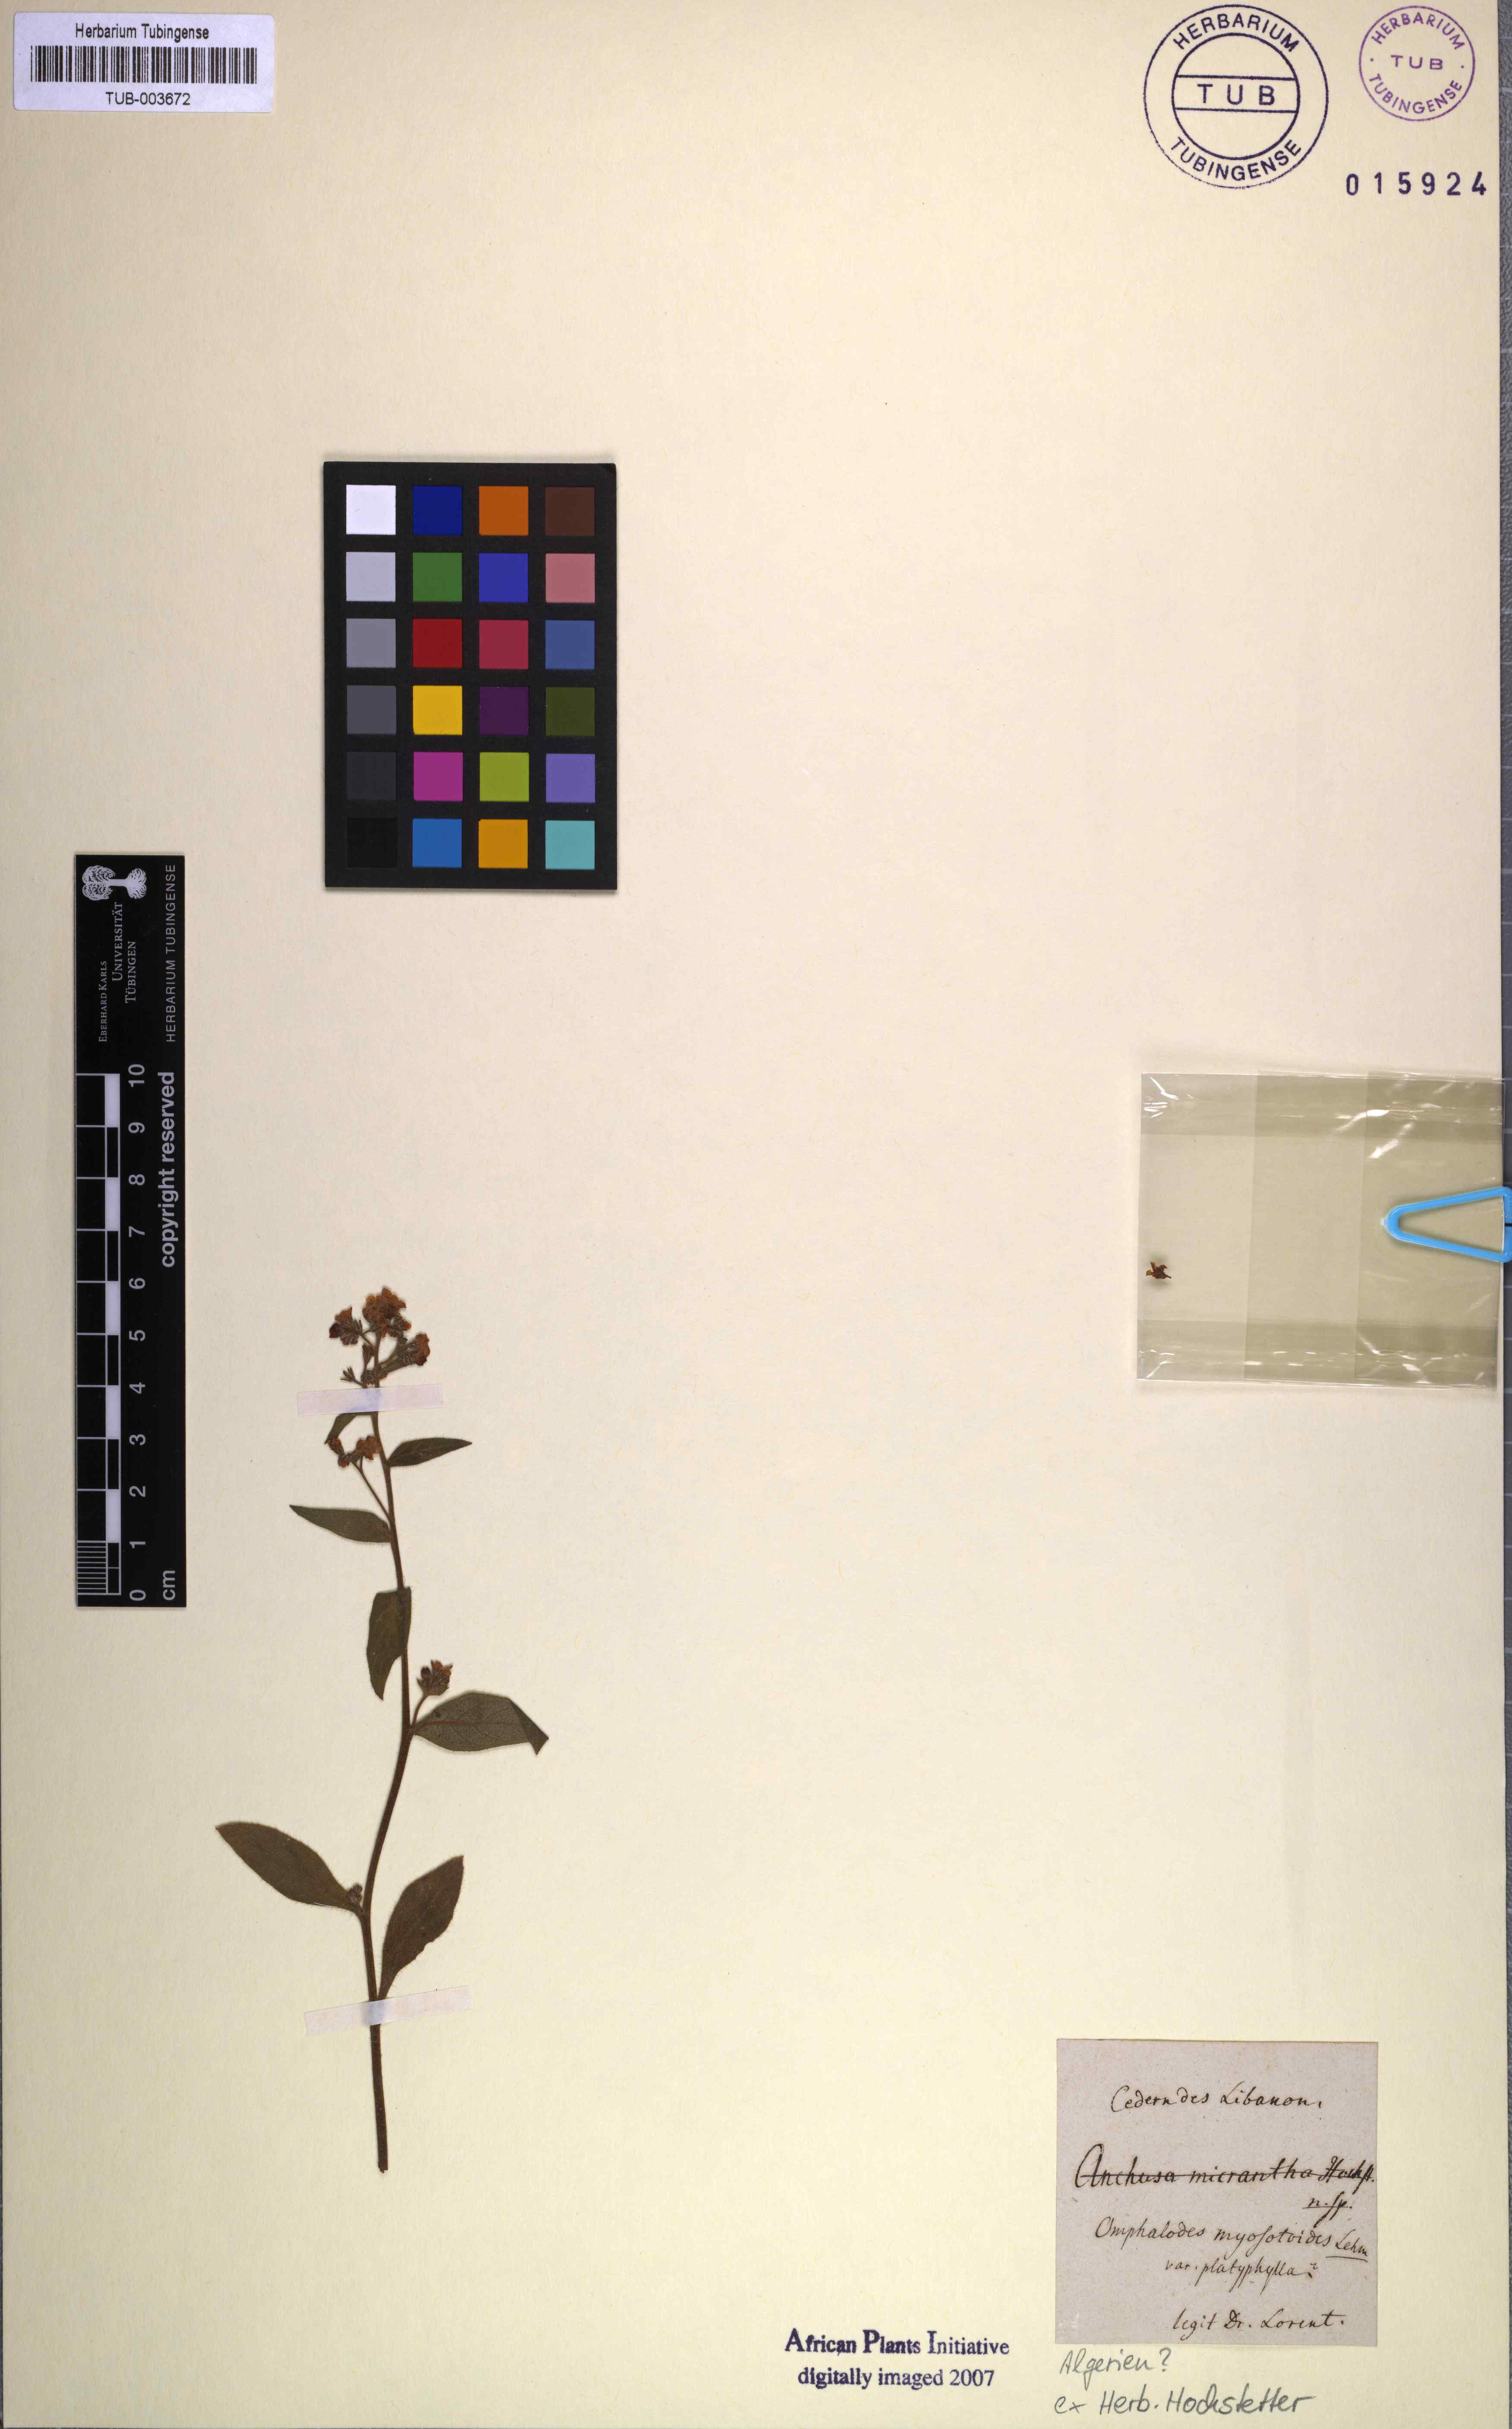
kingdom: Plantae
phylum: Tracheophyta
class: Magnoliopsida
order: Boraginales
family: Boraginaceae
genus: Paracaryum
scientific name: Paracaryum lithospermifolium
